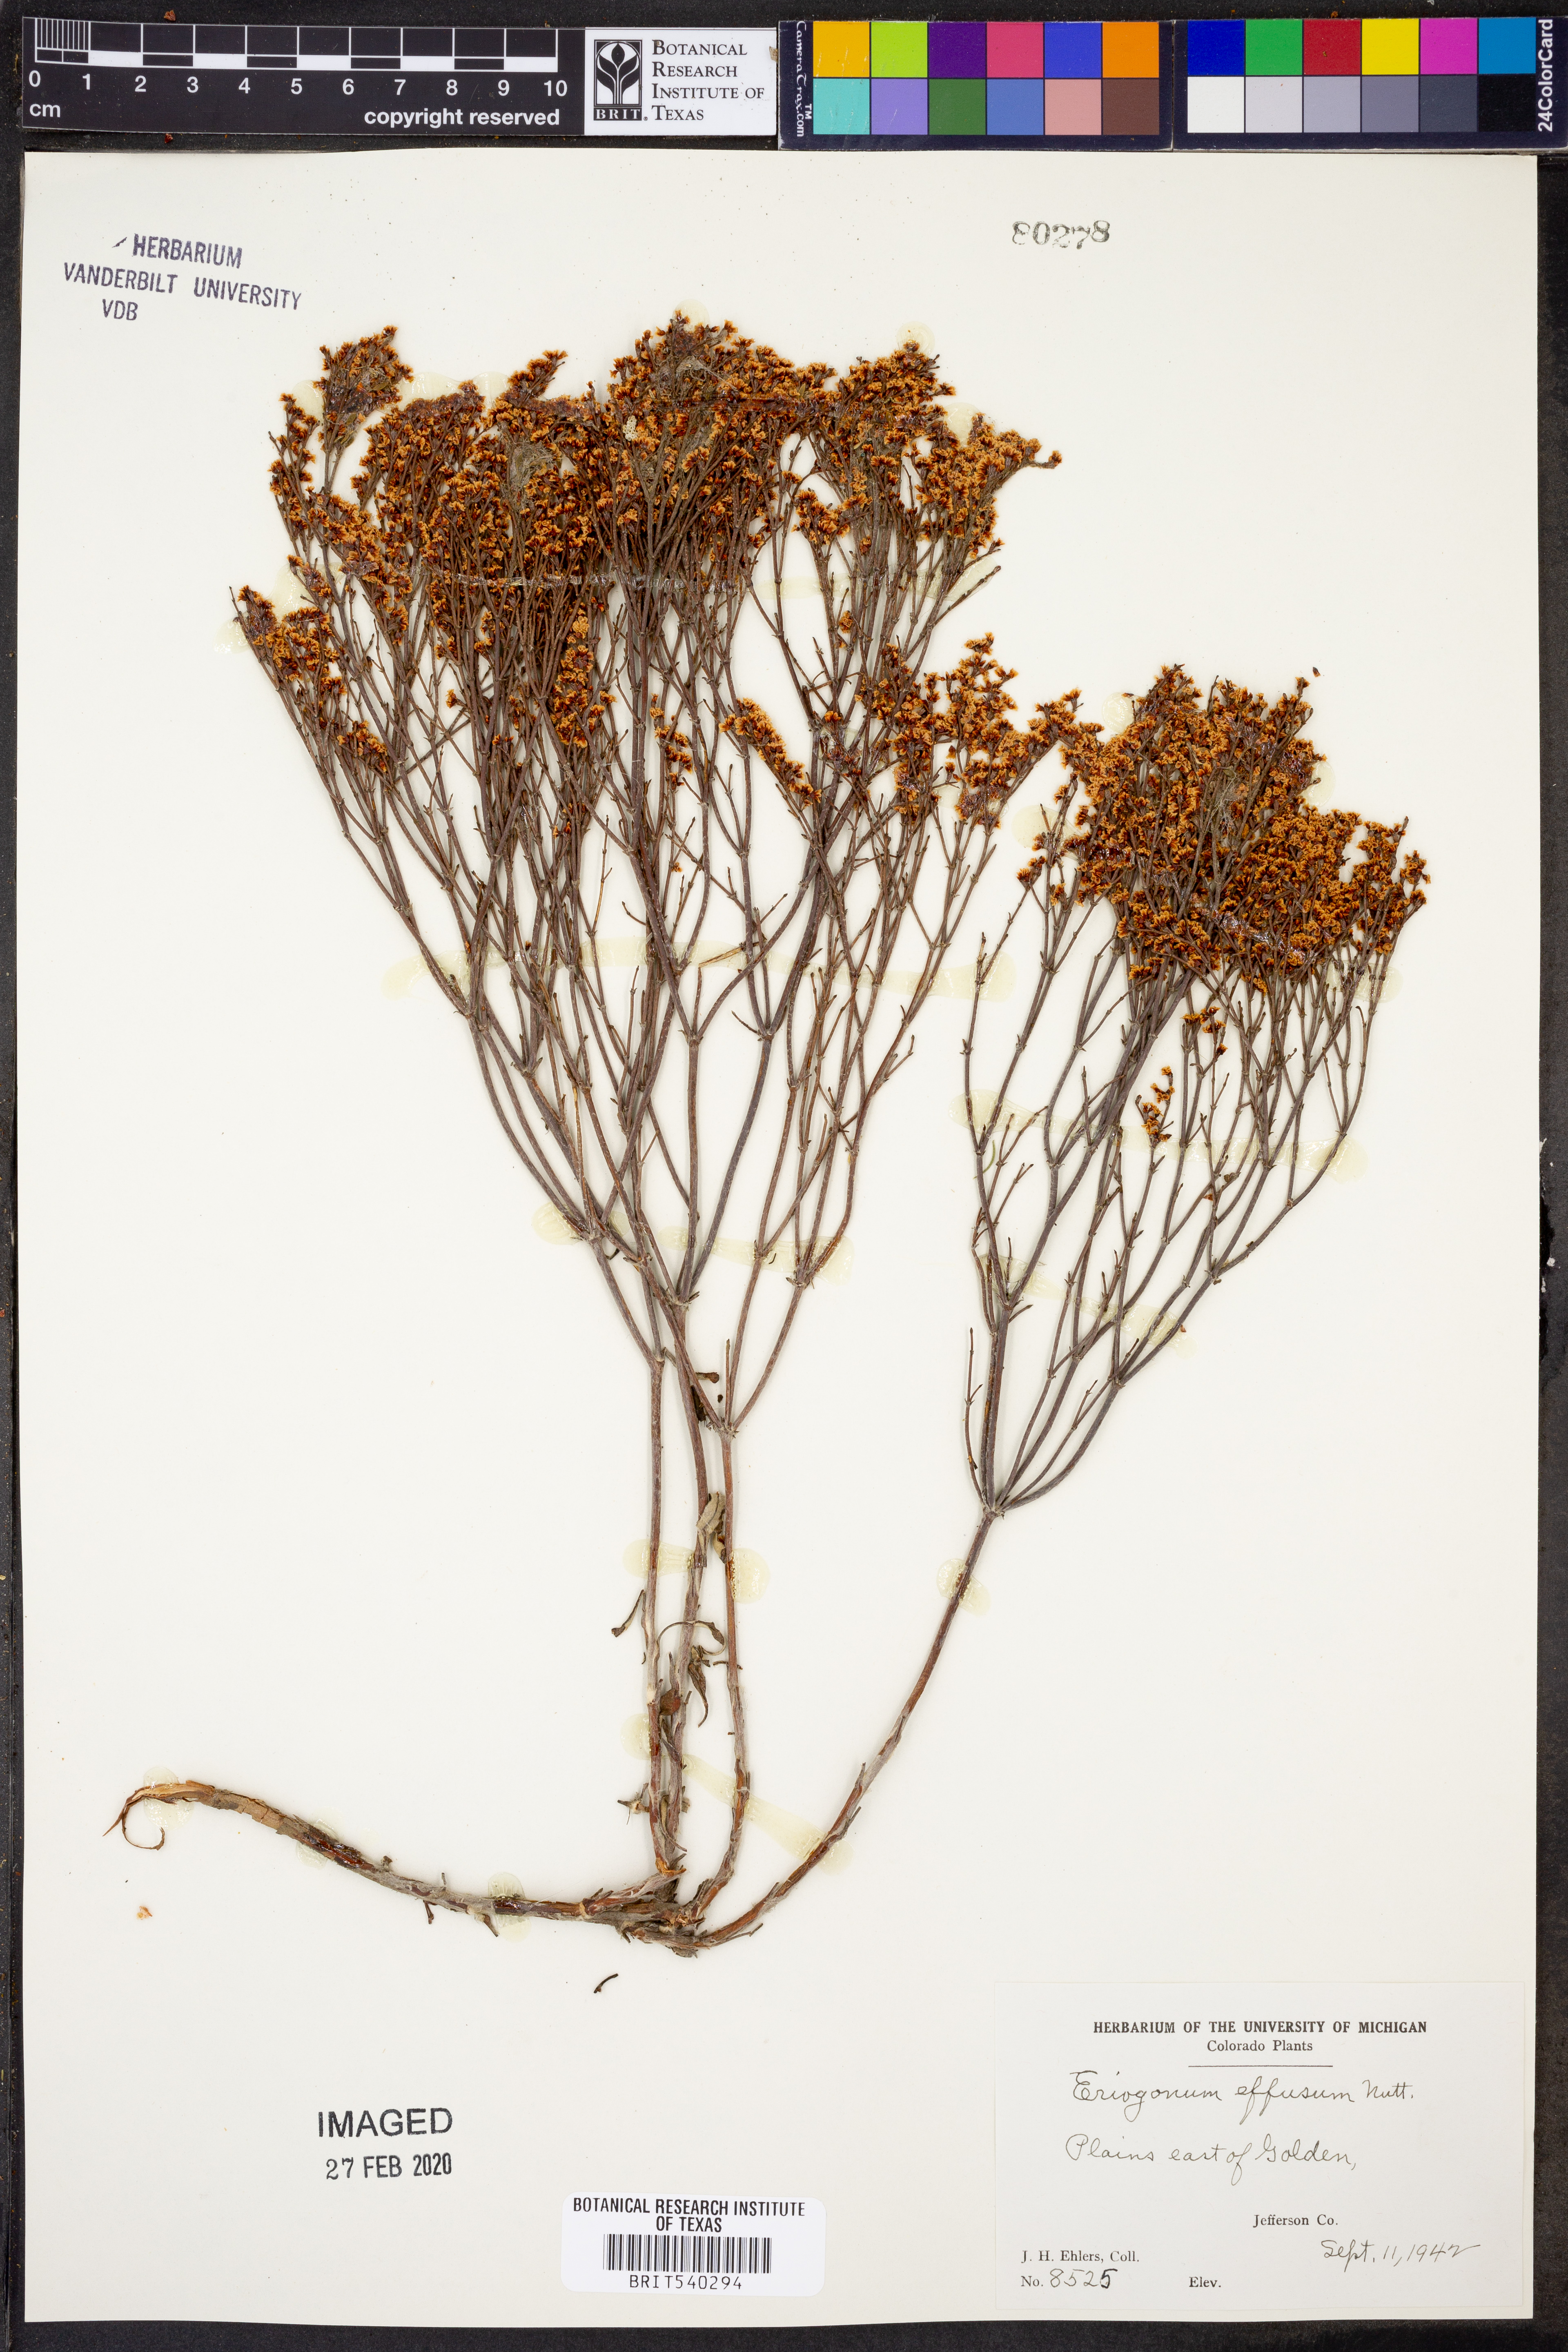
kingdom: Plantae
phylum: Tracheophyta
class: Magnoliopsida
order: Caryophyllales
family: Polygonaceae
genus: Eriogonum
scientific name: Eriogonum effusum
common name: Spreading wild buckwheat
